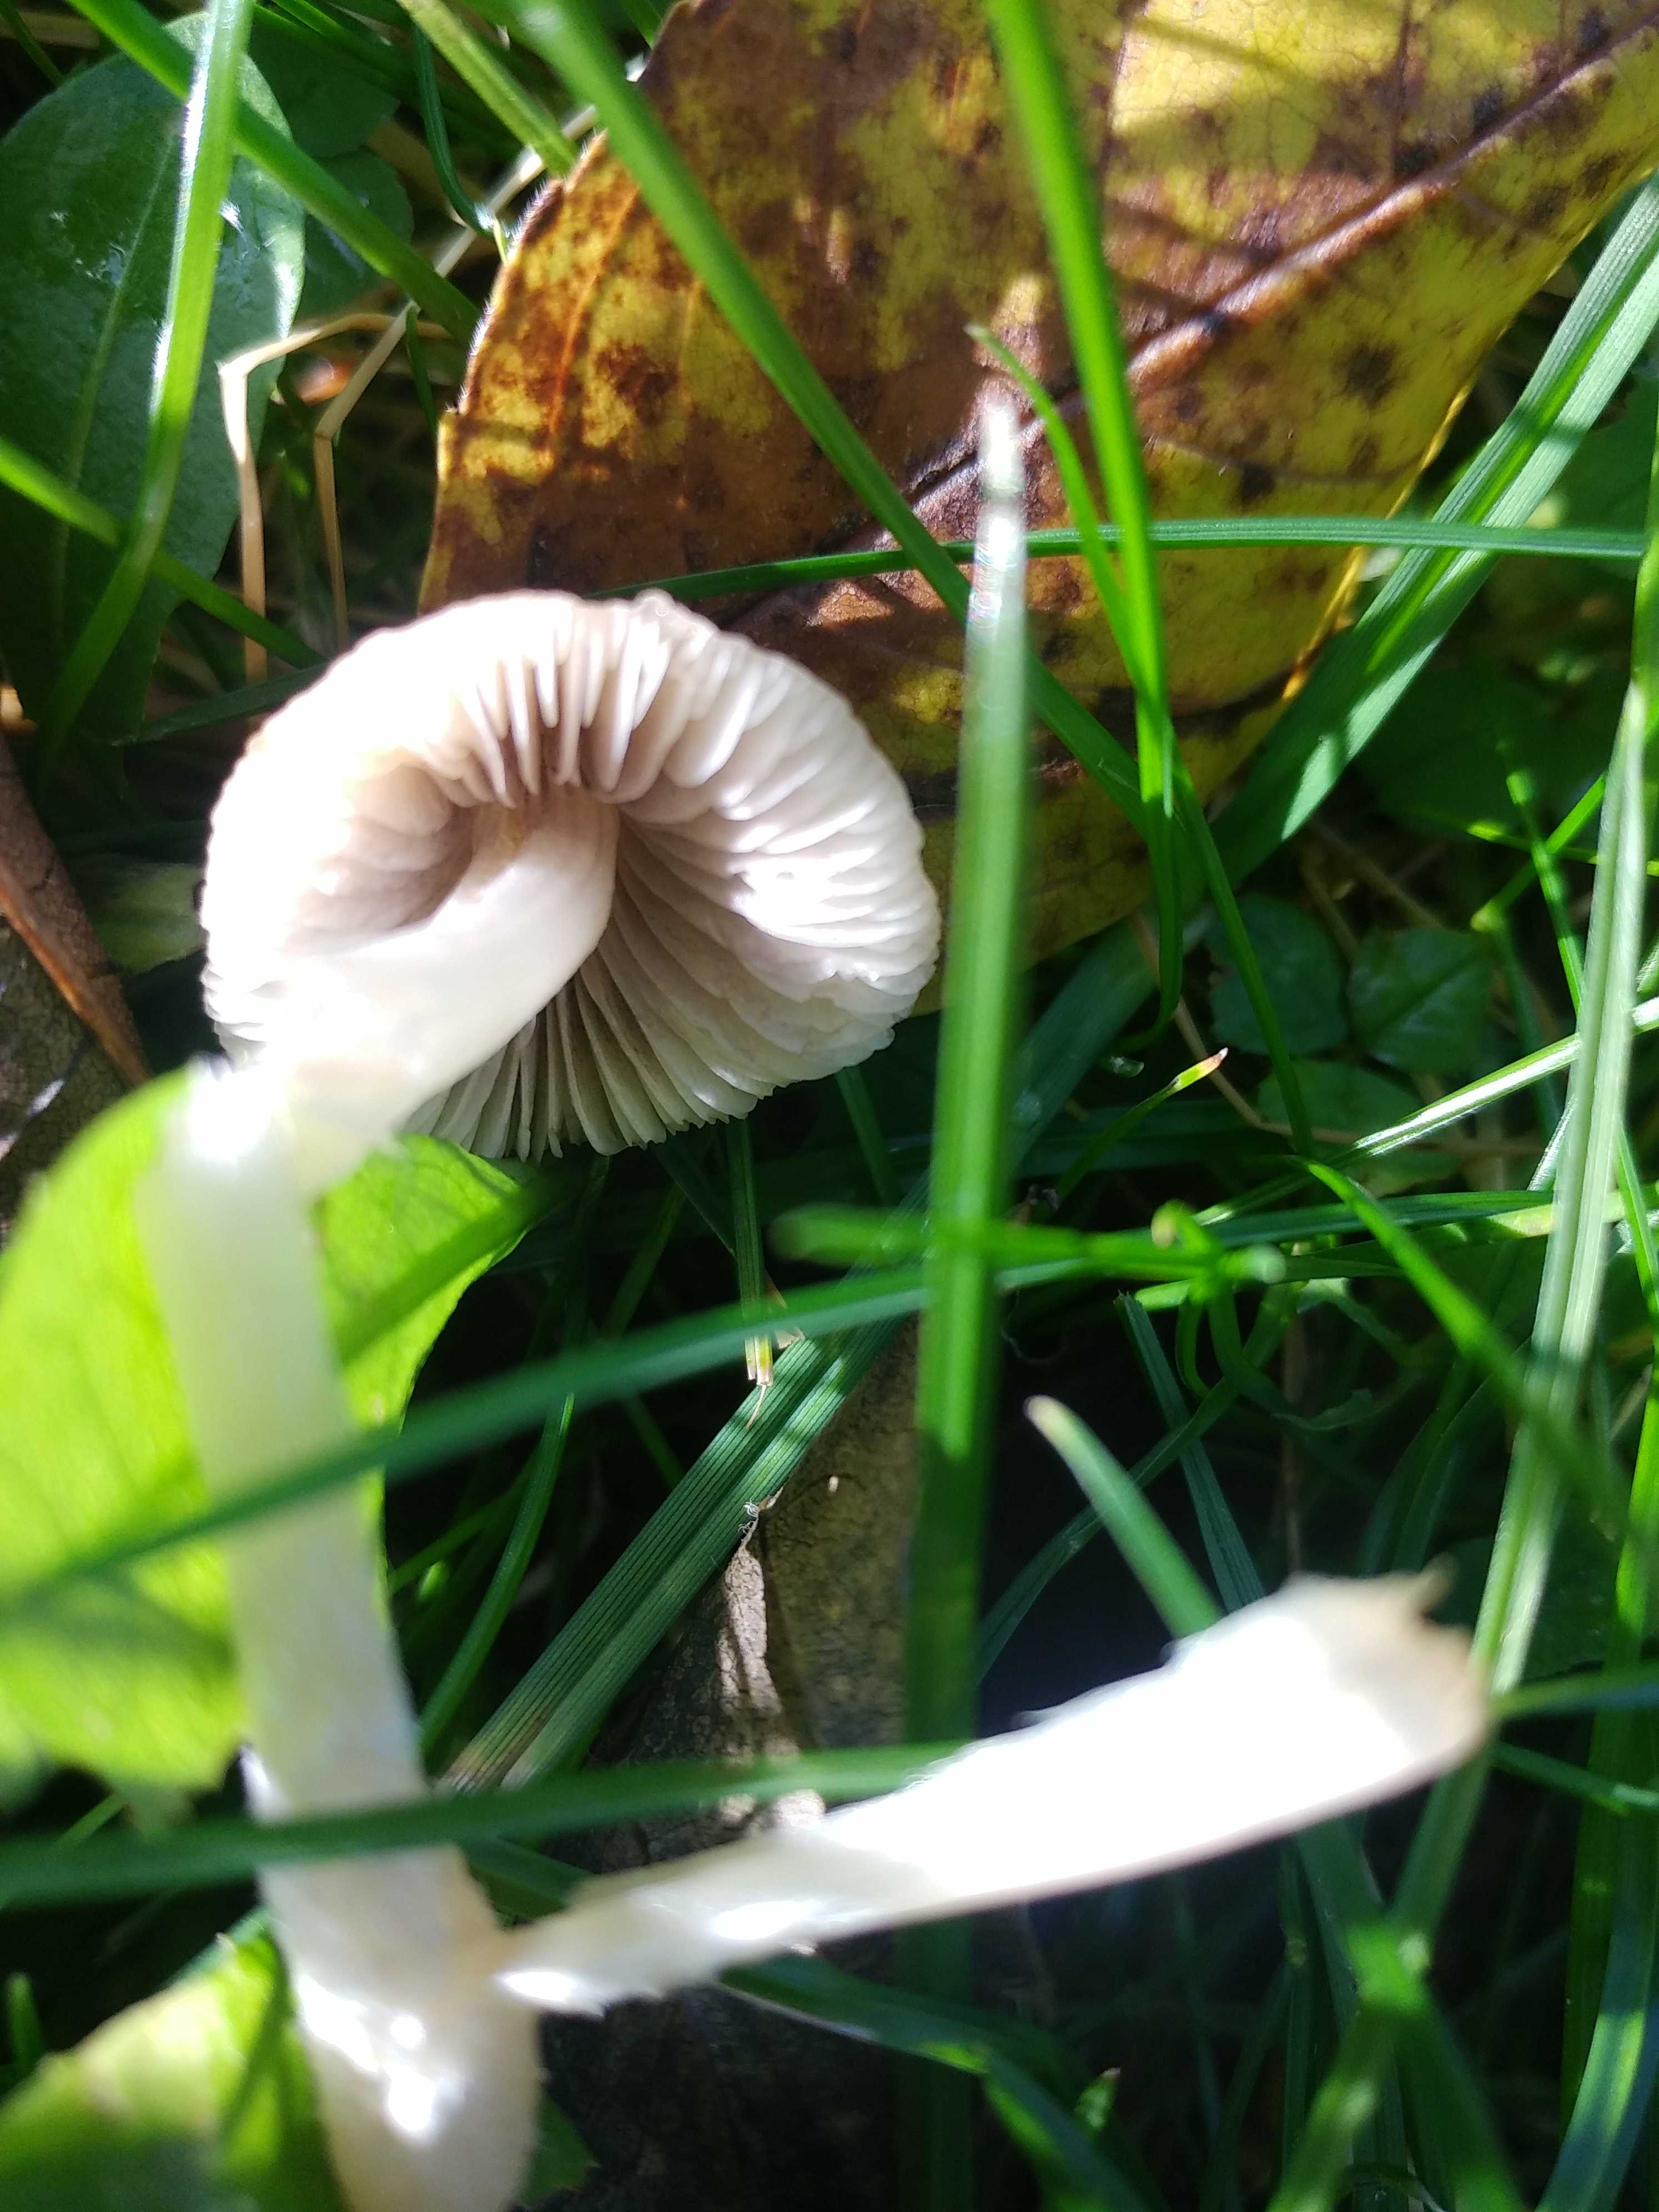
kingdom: Fungi
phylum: Basidiomycota
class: Agaricomycetes
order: Agaricales
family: Psathyrellaceae
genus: Psathyrella
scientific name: Psathyrella
